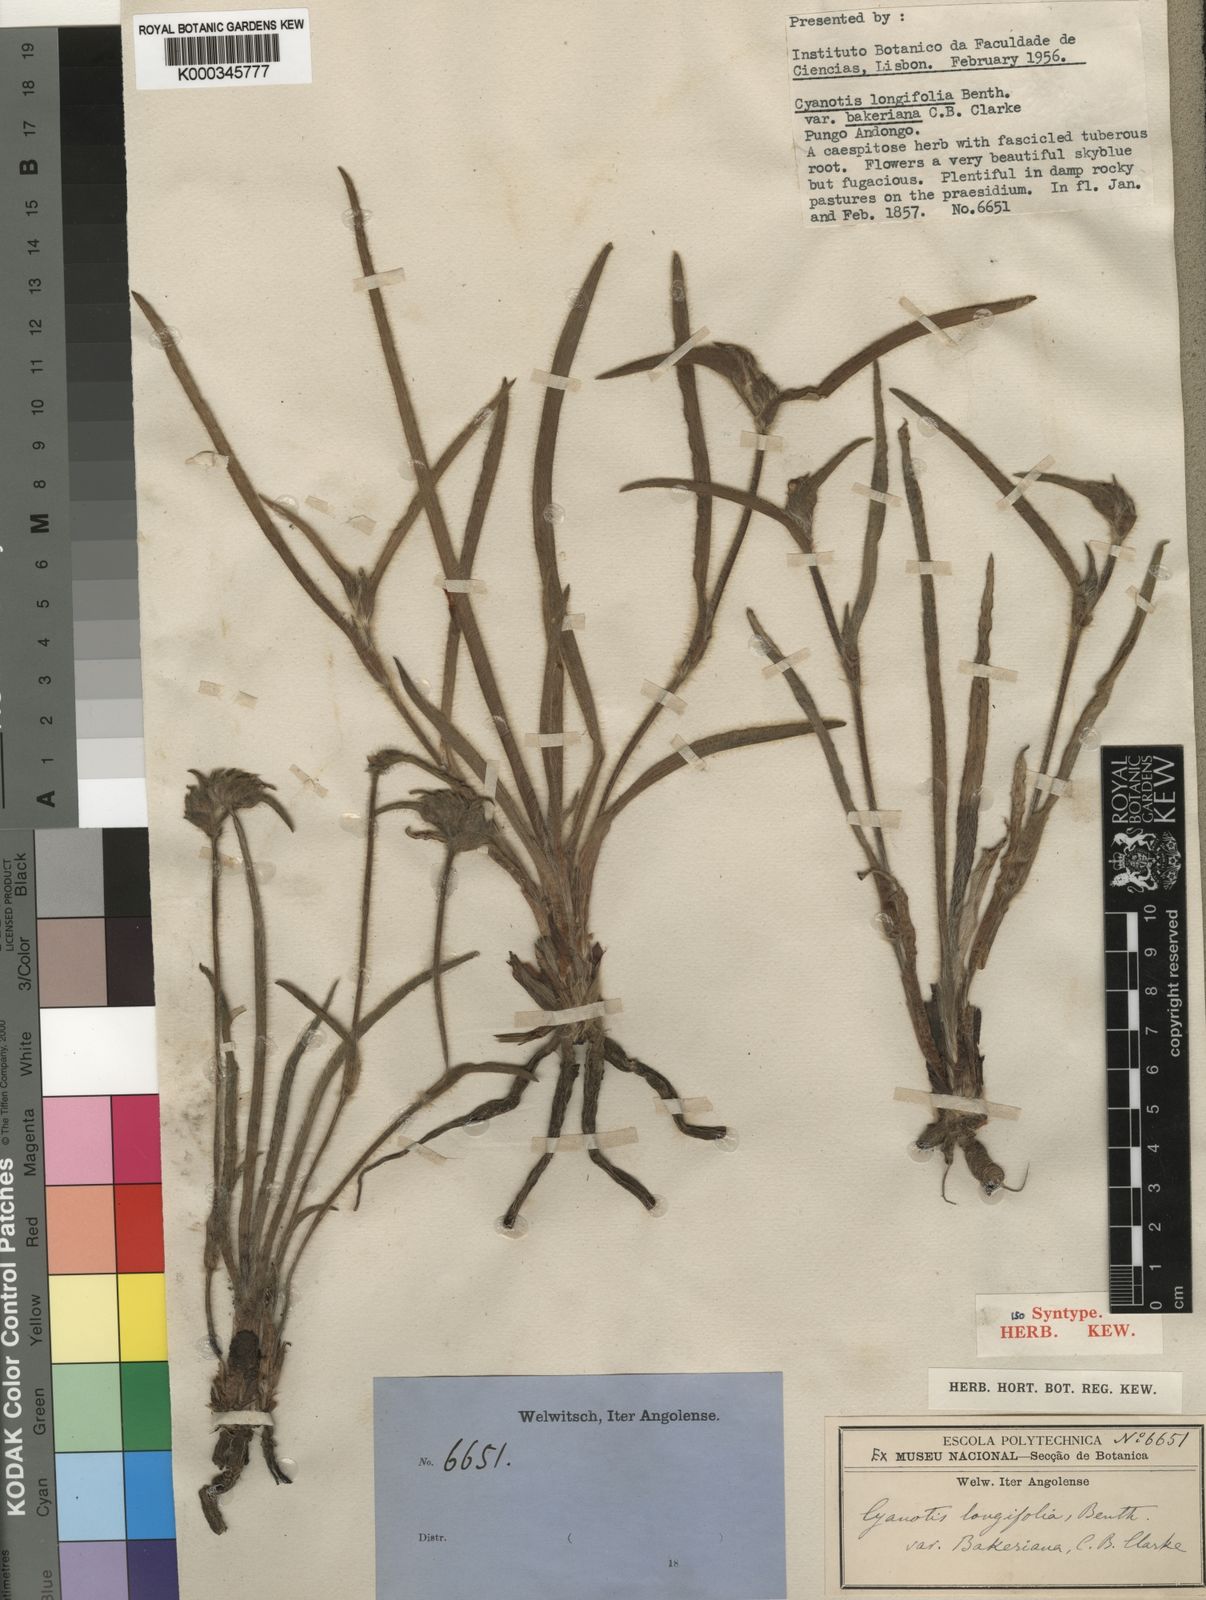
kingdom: Plantae
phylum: Tracheophyta
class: Liliopsida
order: Commelinales
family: Commelinaceae
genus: Cyanotis
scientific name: Cyanotis longifolia
